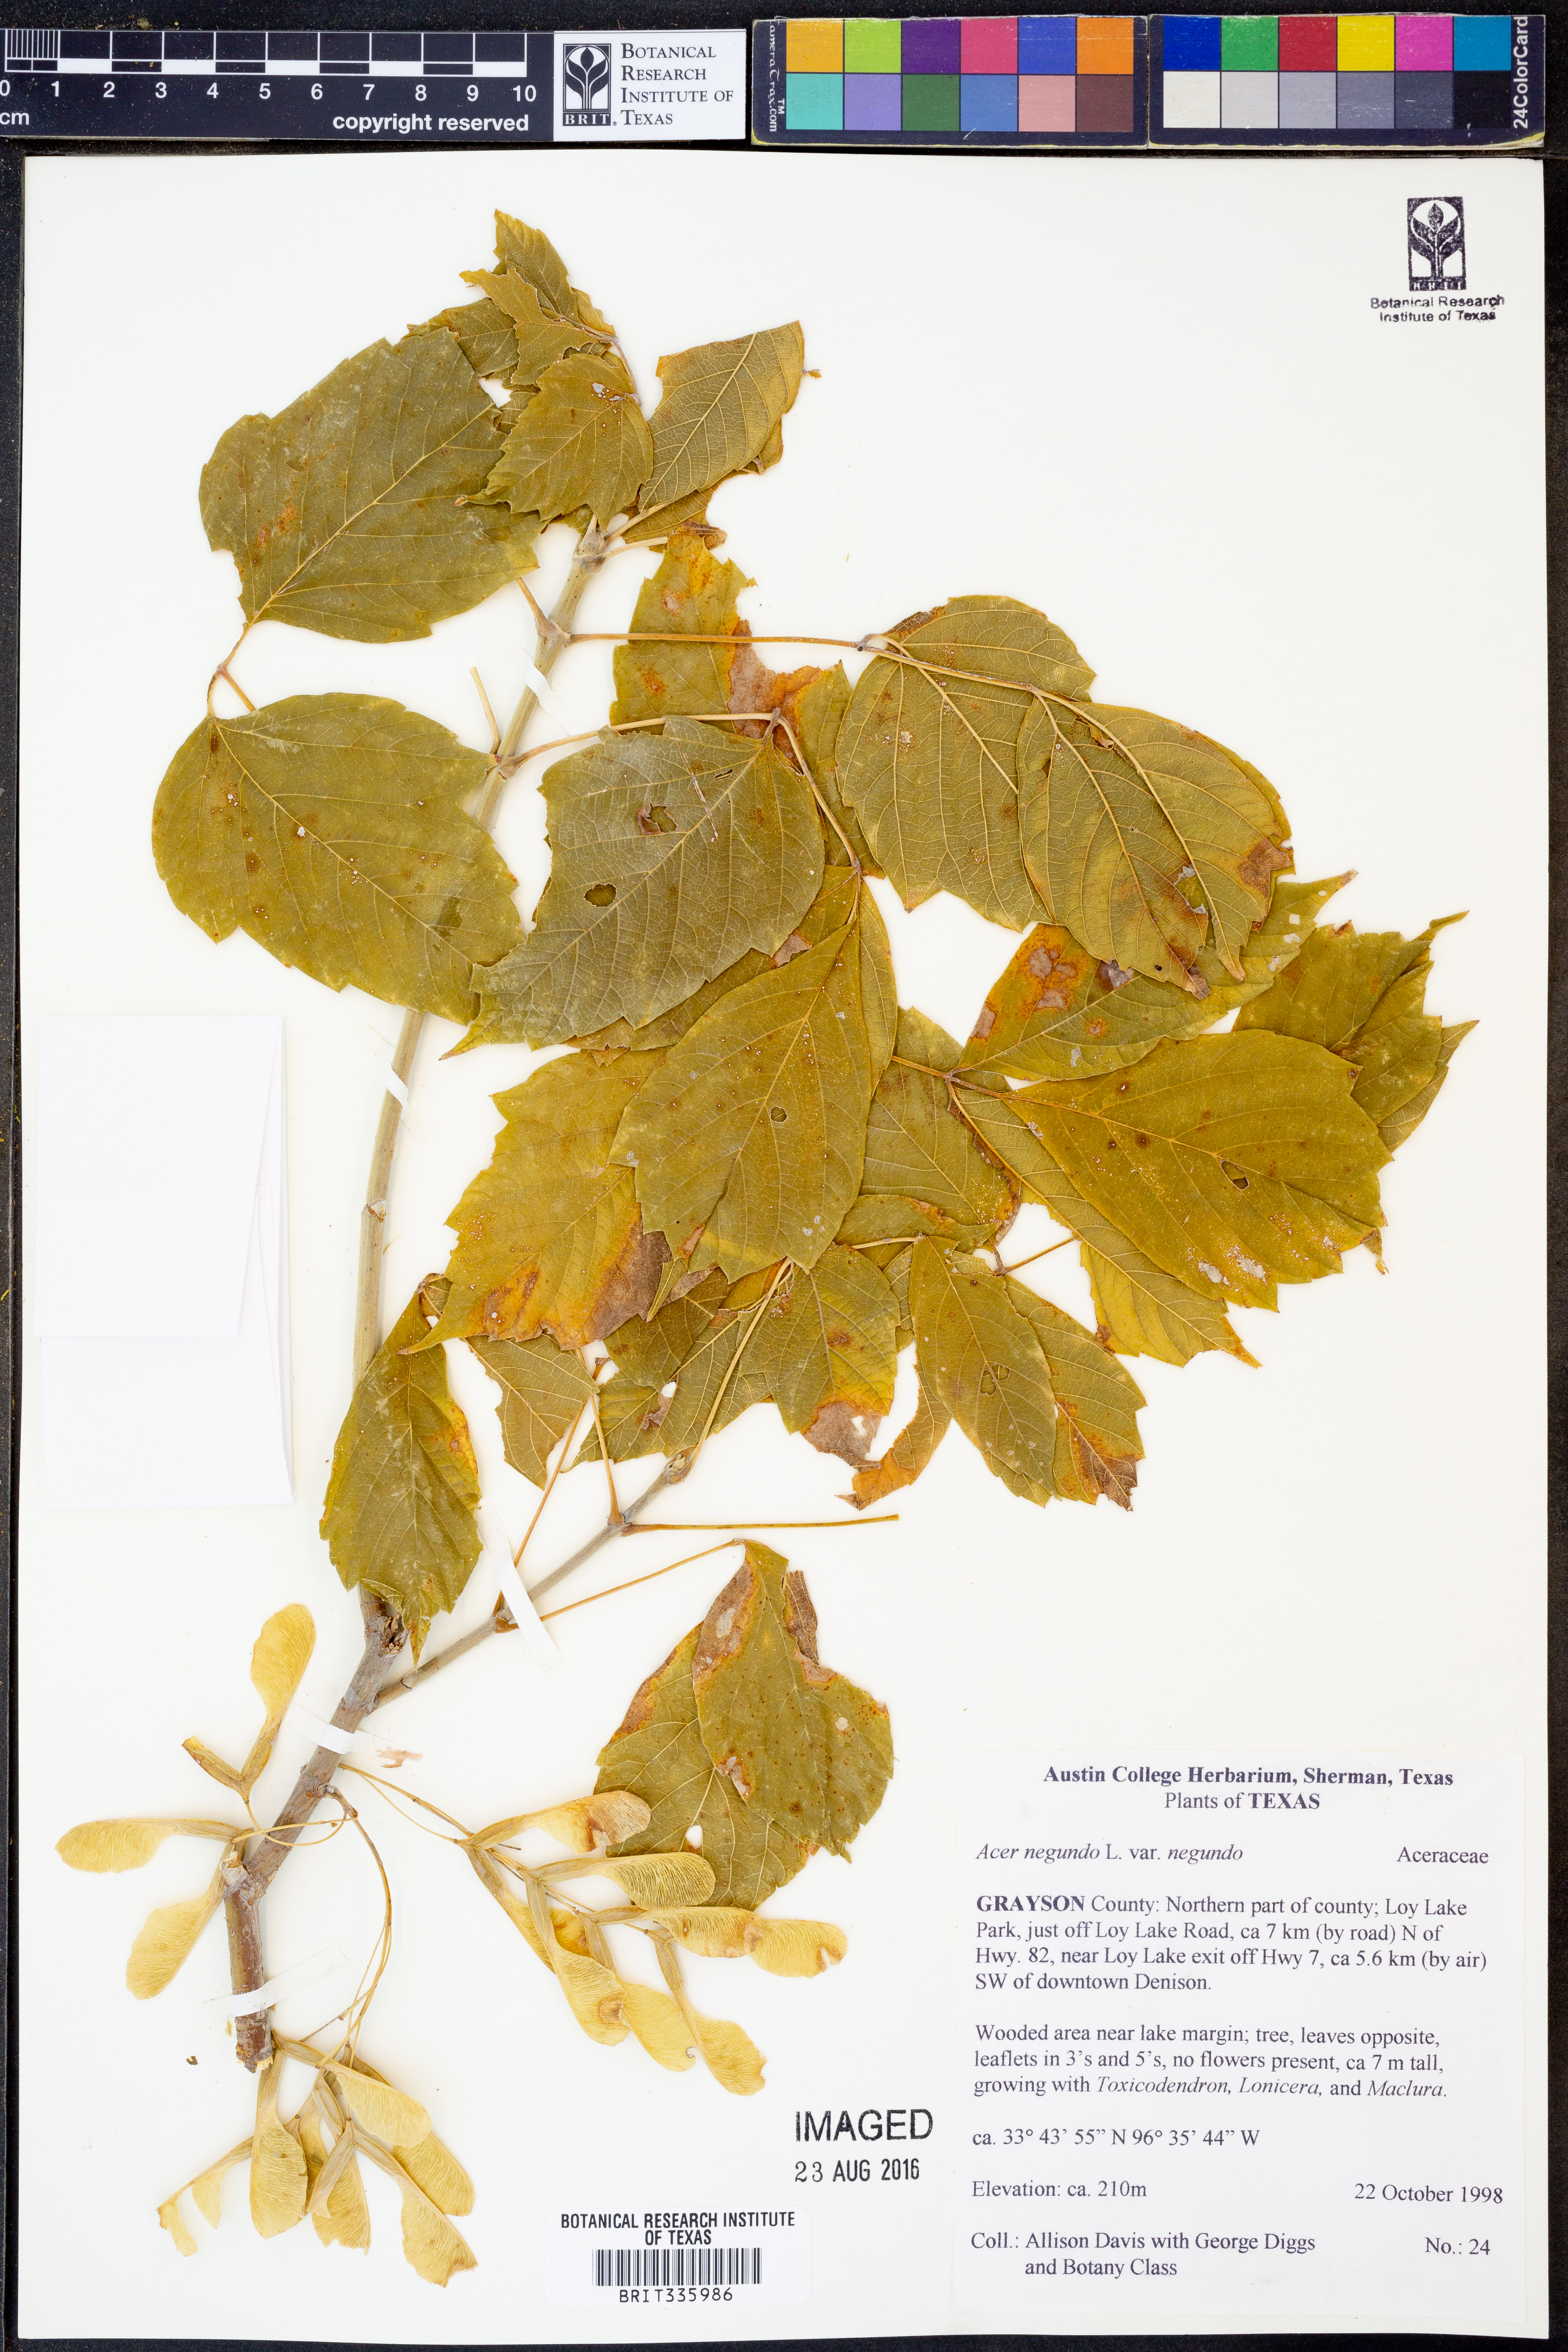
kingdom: Plantae
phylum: Tracheophyta
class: Magnoliopsida
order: Sapindales
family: Sapindaceae
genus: Acer
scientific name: Acer negundo
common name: Ashleaf maple
